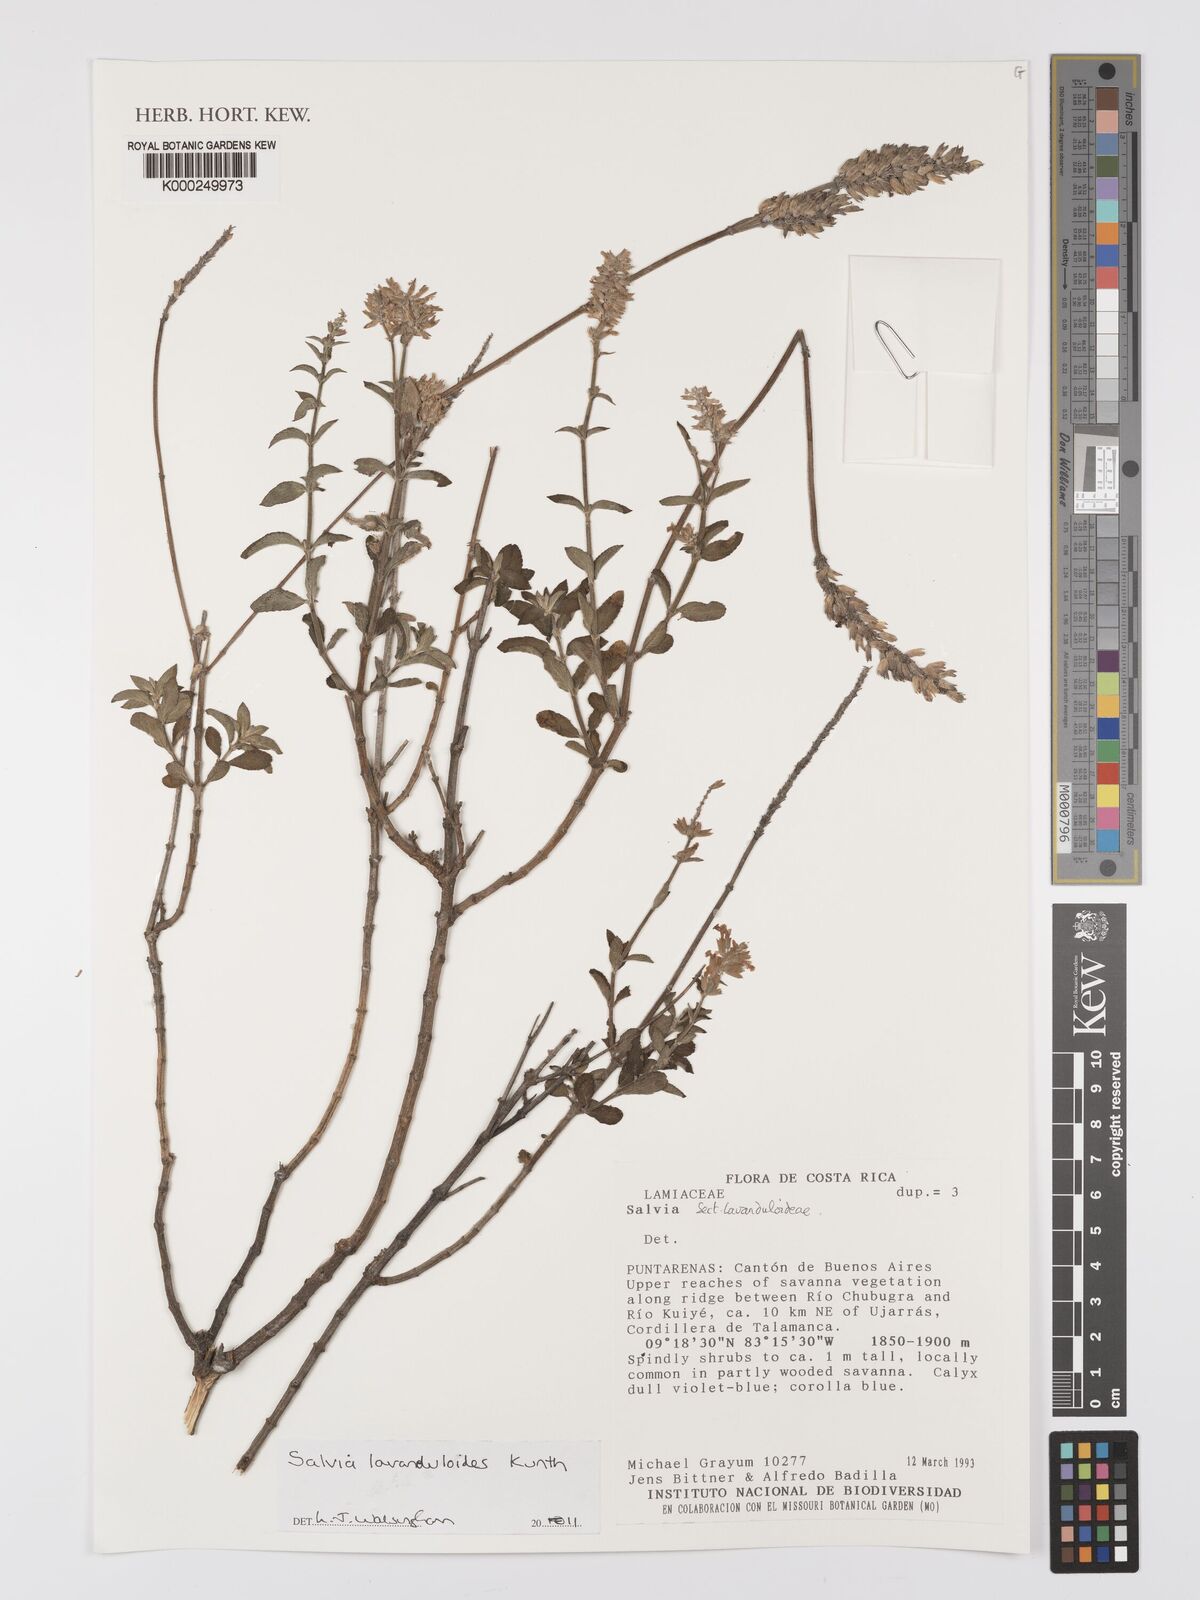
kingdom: Plantae
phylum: Tracheophyta
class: Magnoliopsida
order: Lamiales
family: Lamiaceae
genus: Mesosphaerum
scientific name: Mesosphaerum suaveolens
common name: Pignut
